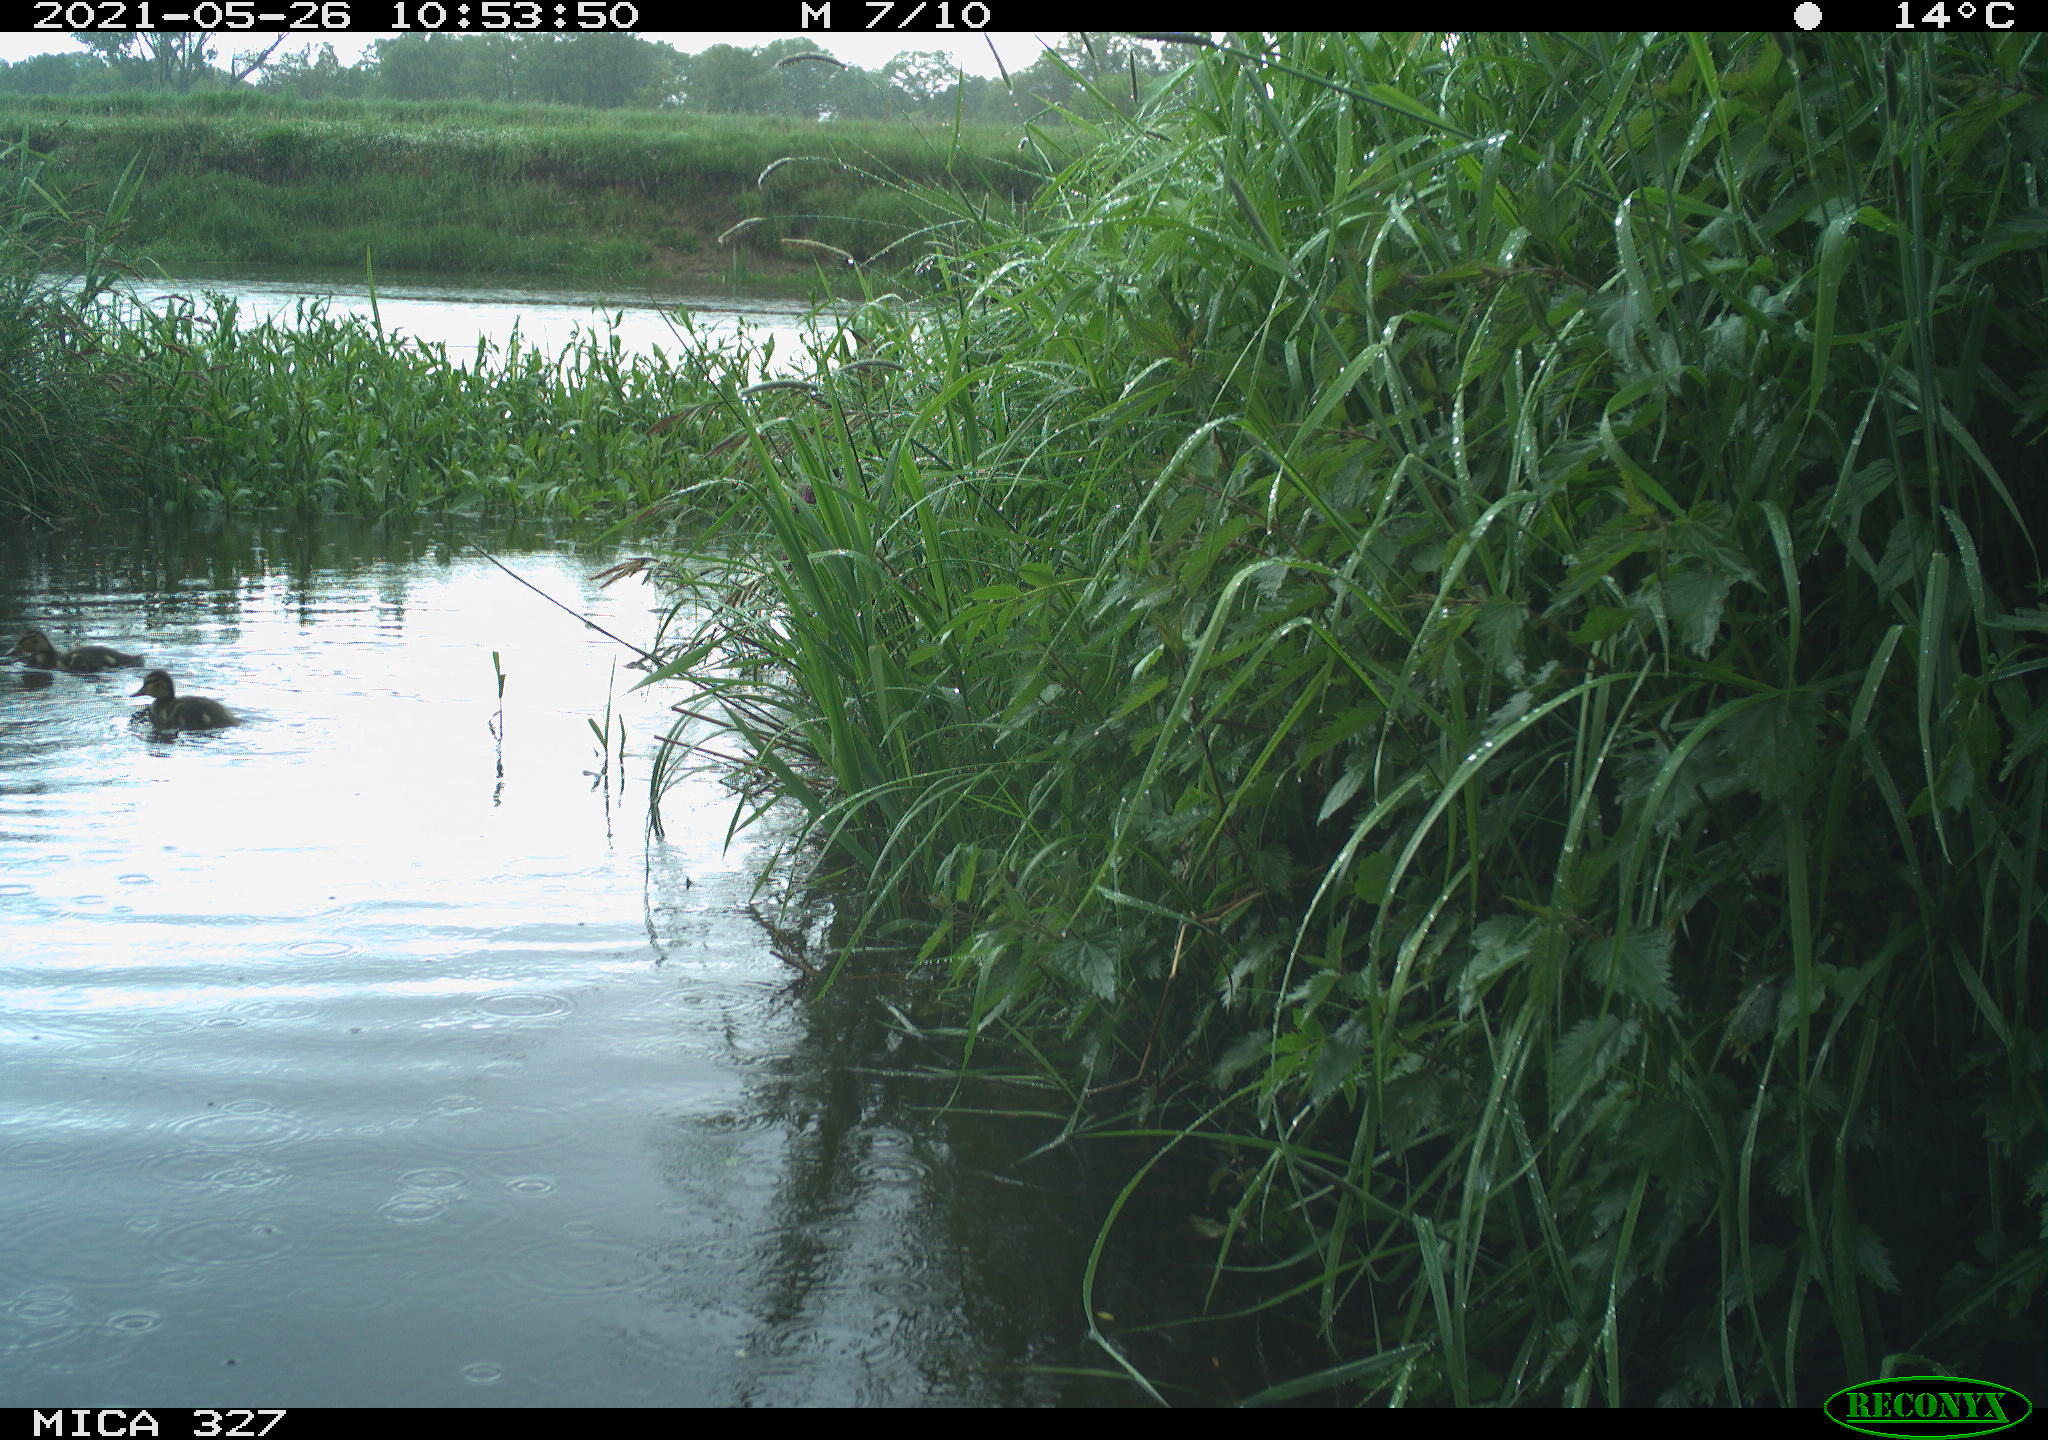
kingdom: Animalia
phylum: Chordata
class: Aves
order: Anseriformes
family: Anatidae
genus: Anas
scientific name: Anas platyrhynchos
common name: Mallard
